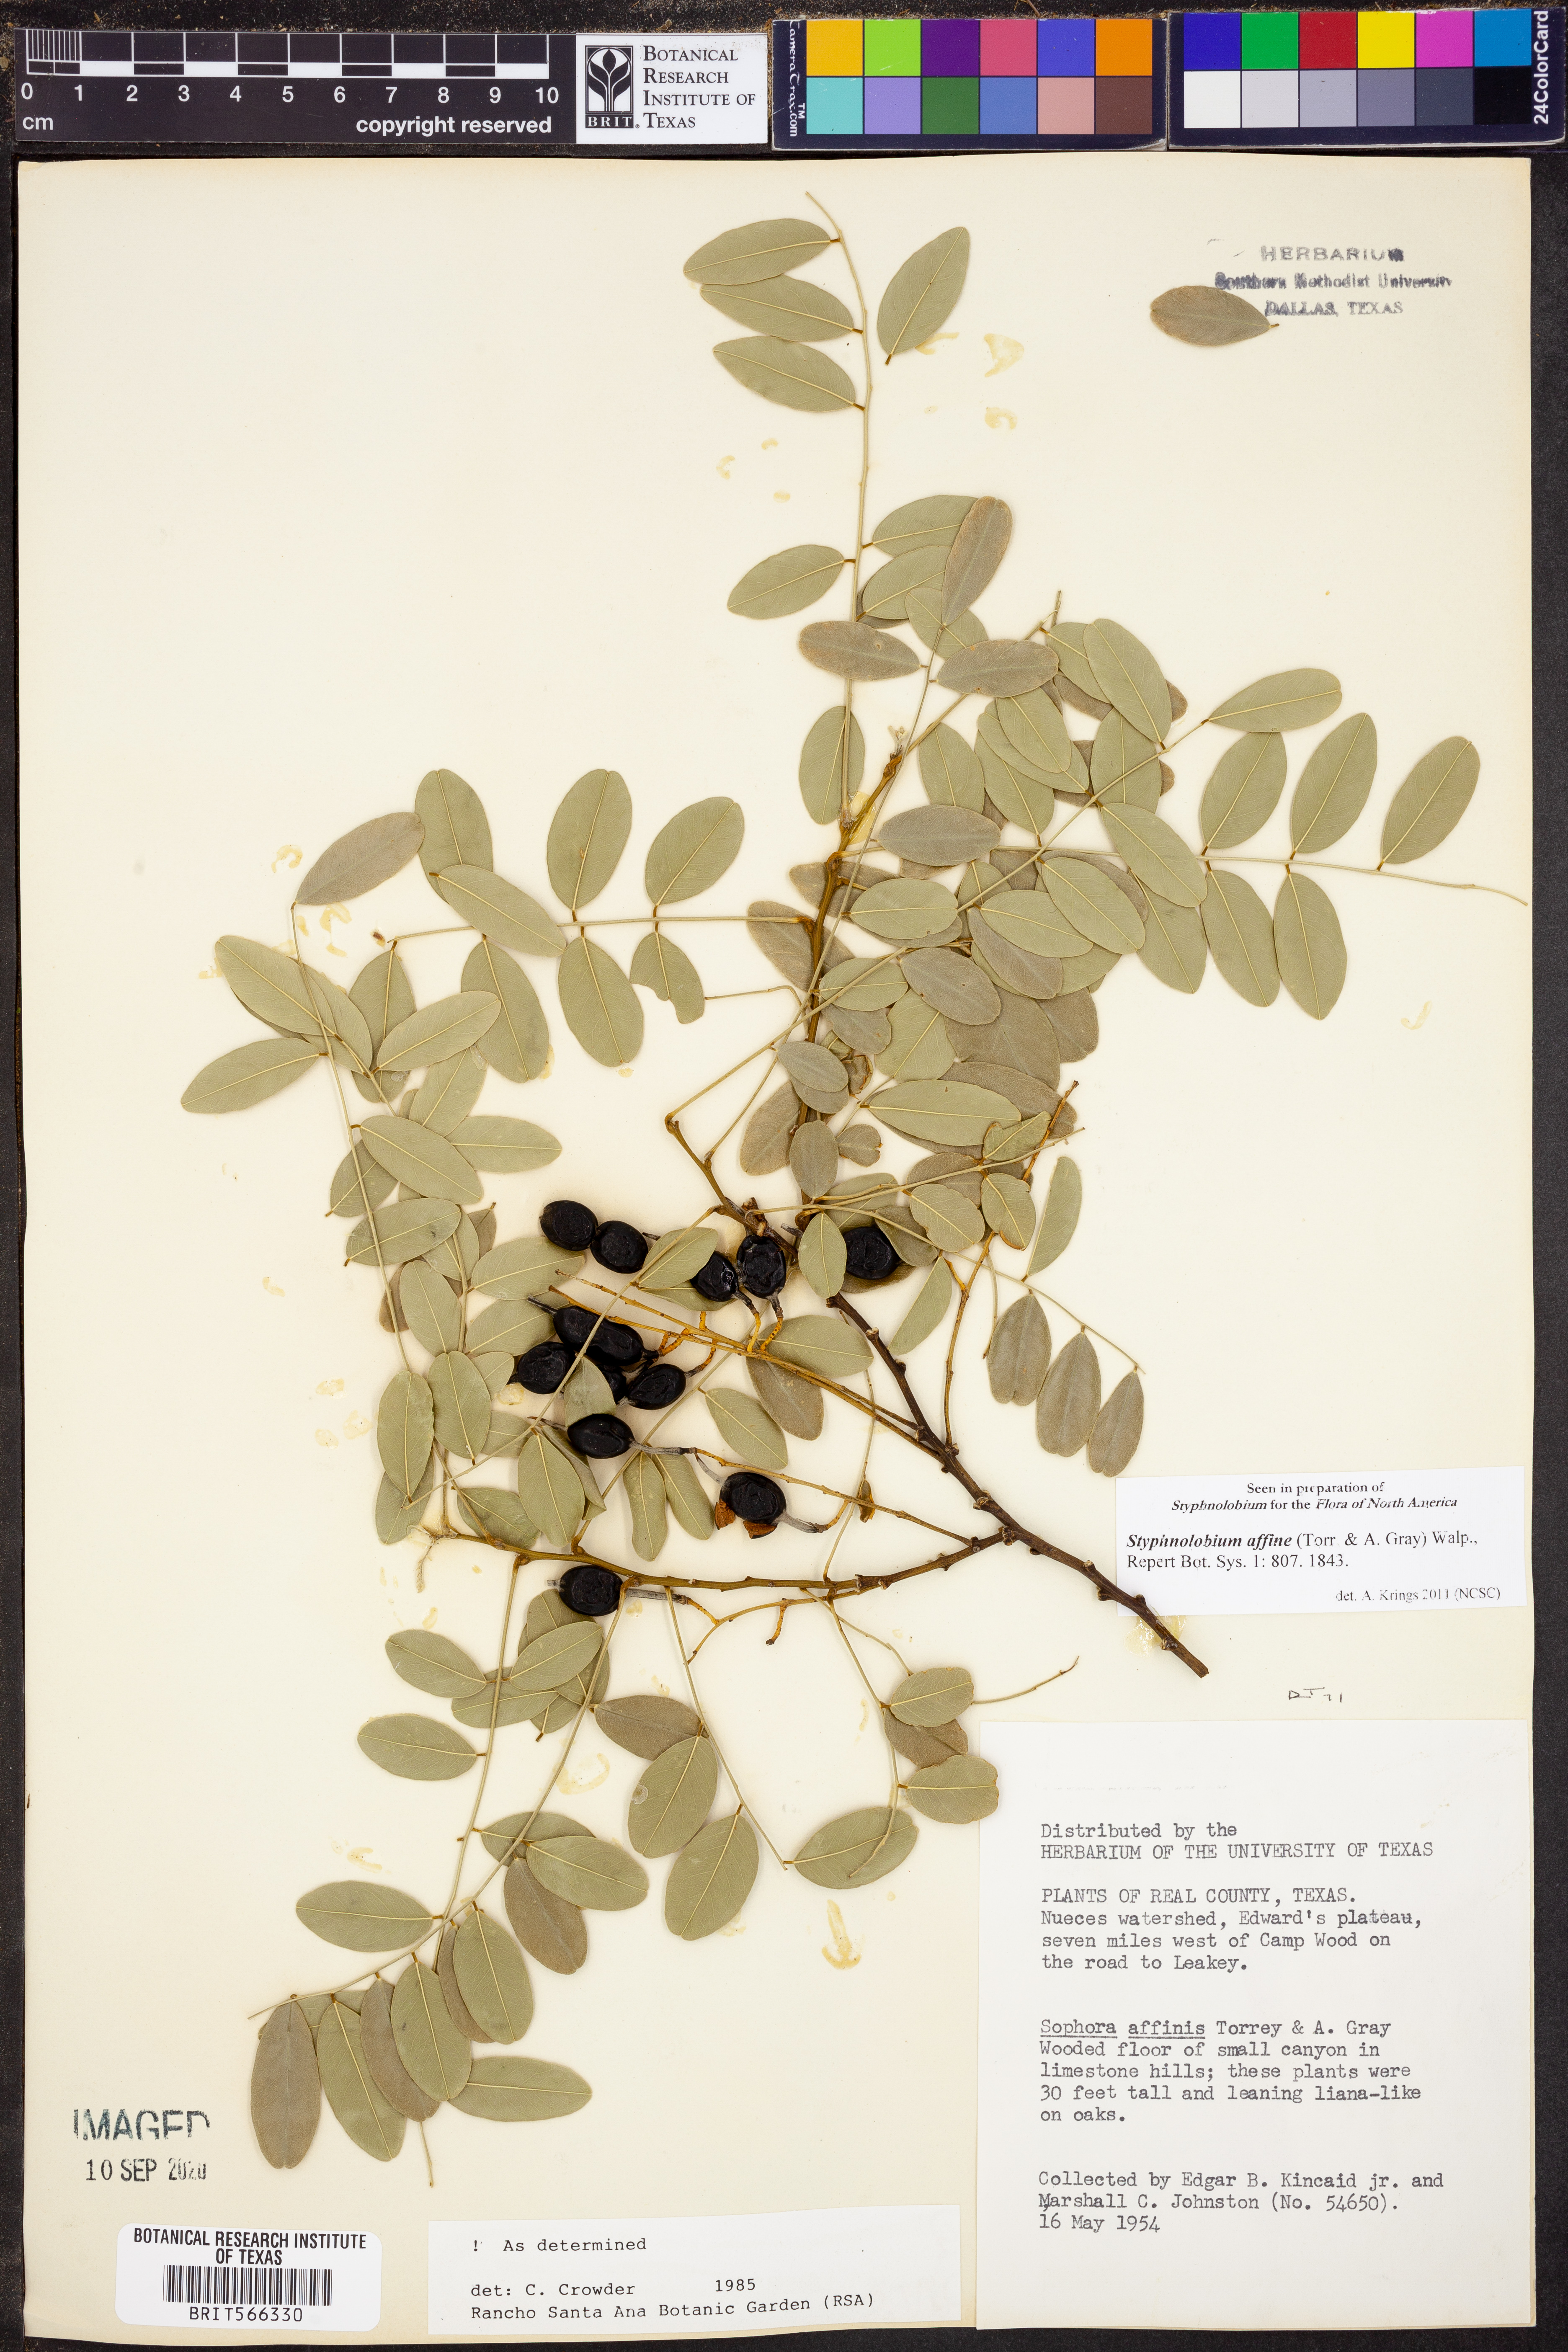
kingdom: Plantae
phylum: Tracheophyta
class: Magnoliopsida
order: Fabales
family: Fabaceae
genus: Styphnolobium
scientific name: Styphnolobium affine
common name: Texas sophora
